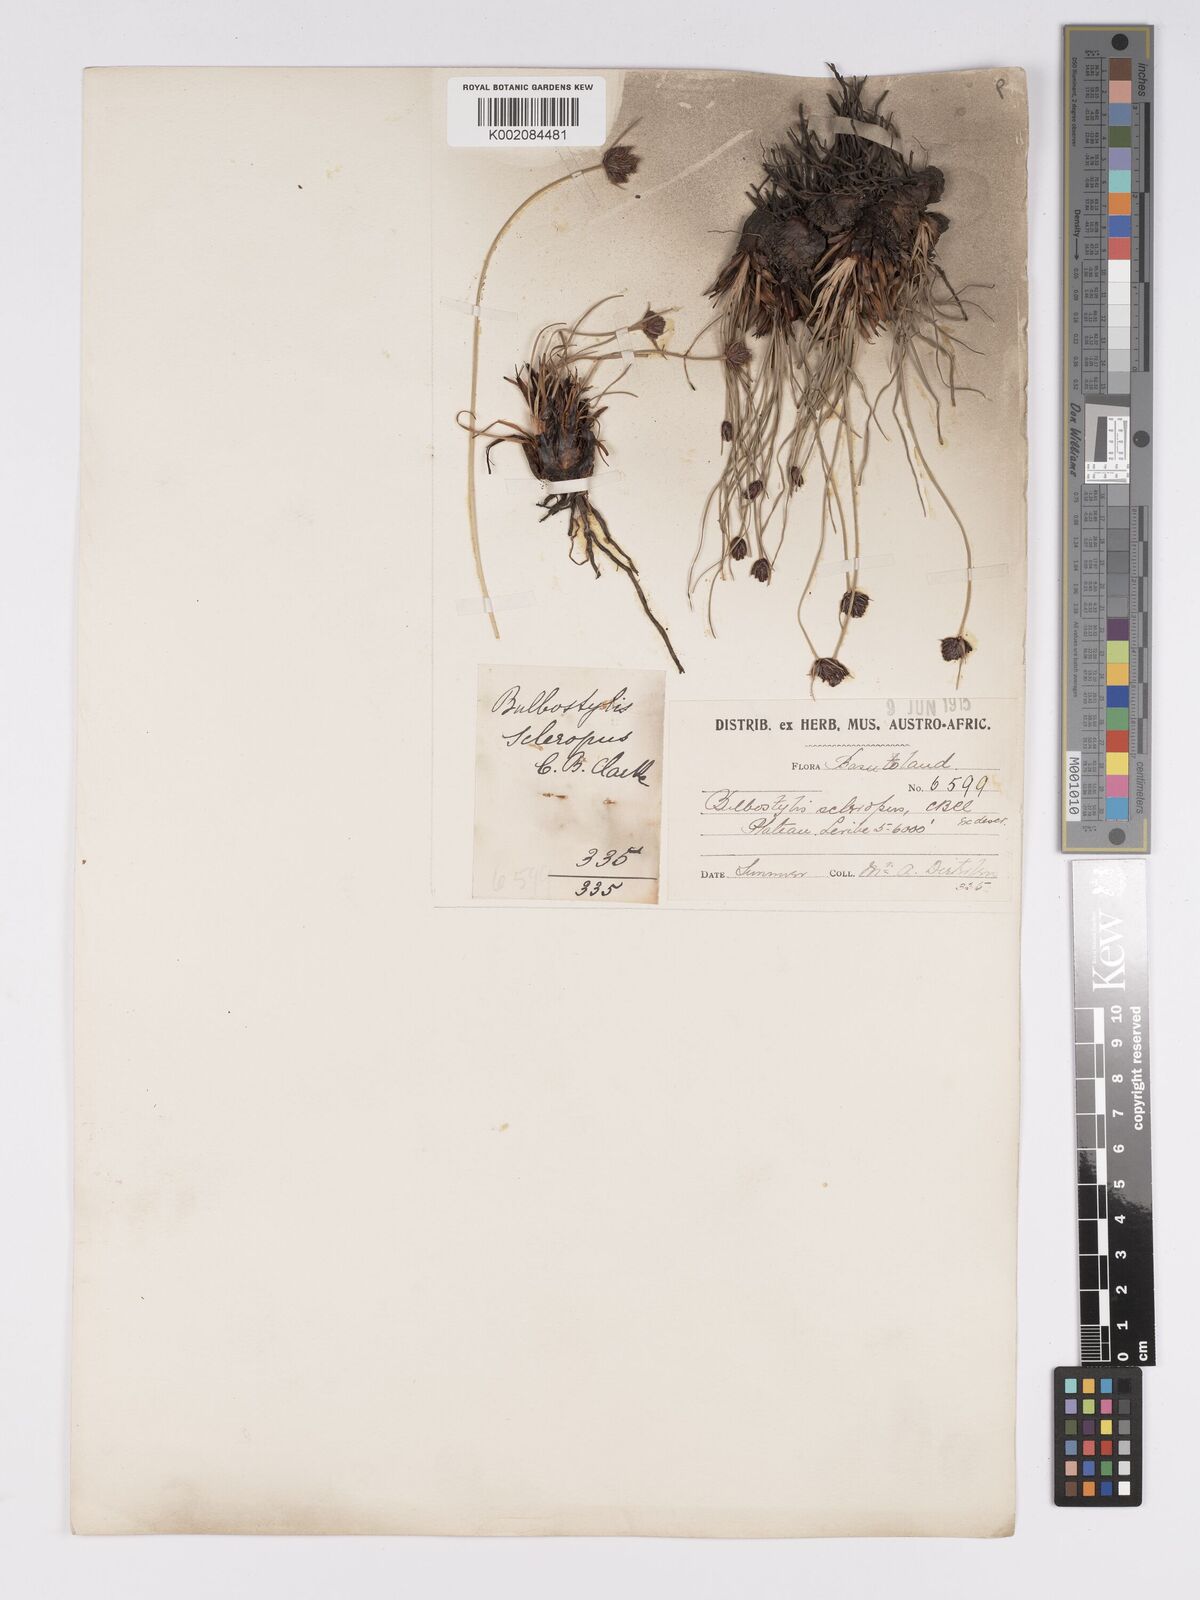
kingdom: Plantae
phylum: Tracheophyta
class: Liliopsida
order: Poales
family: Cyperaceae
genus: Bulbostylis
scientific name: Bulbostylis schoenoides
